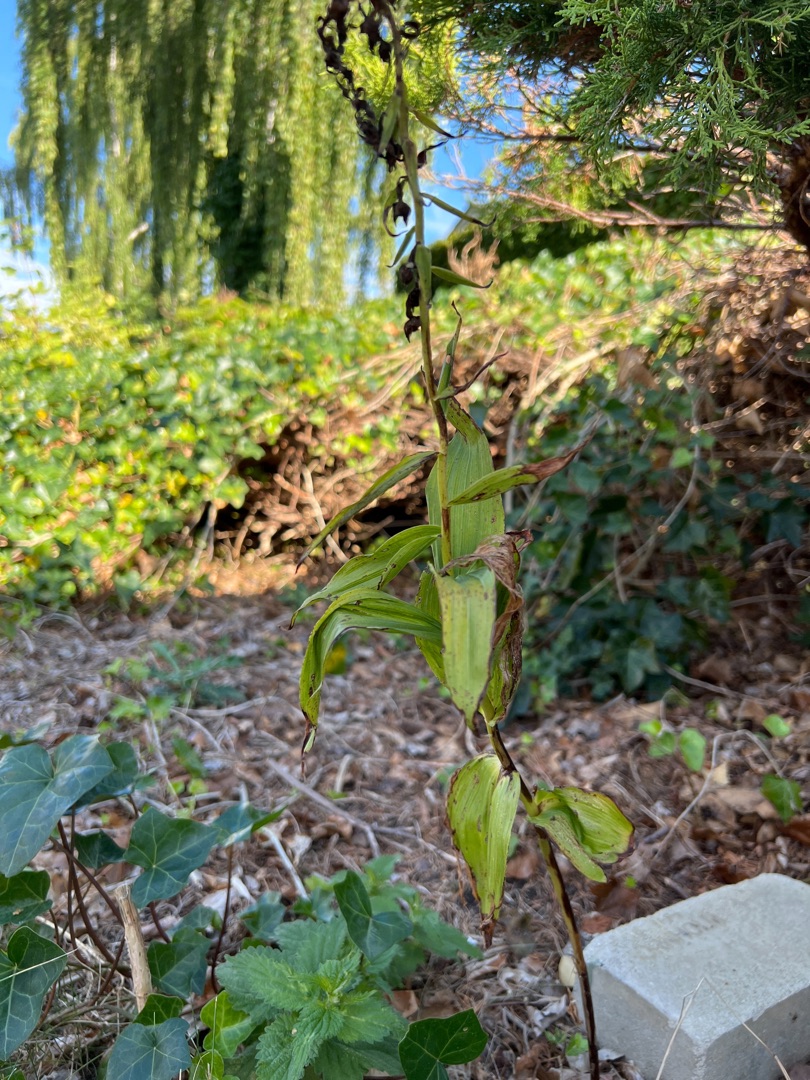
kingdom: Plantae
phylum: Tracheophyta
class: Liliopsida
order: Asparagales
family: Orchidaceae
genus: Epipactis
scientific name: Epipactis helleborine
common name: Skov-hullæbe
